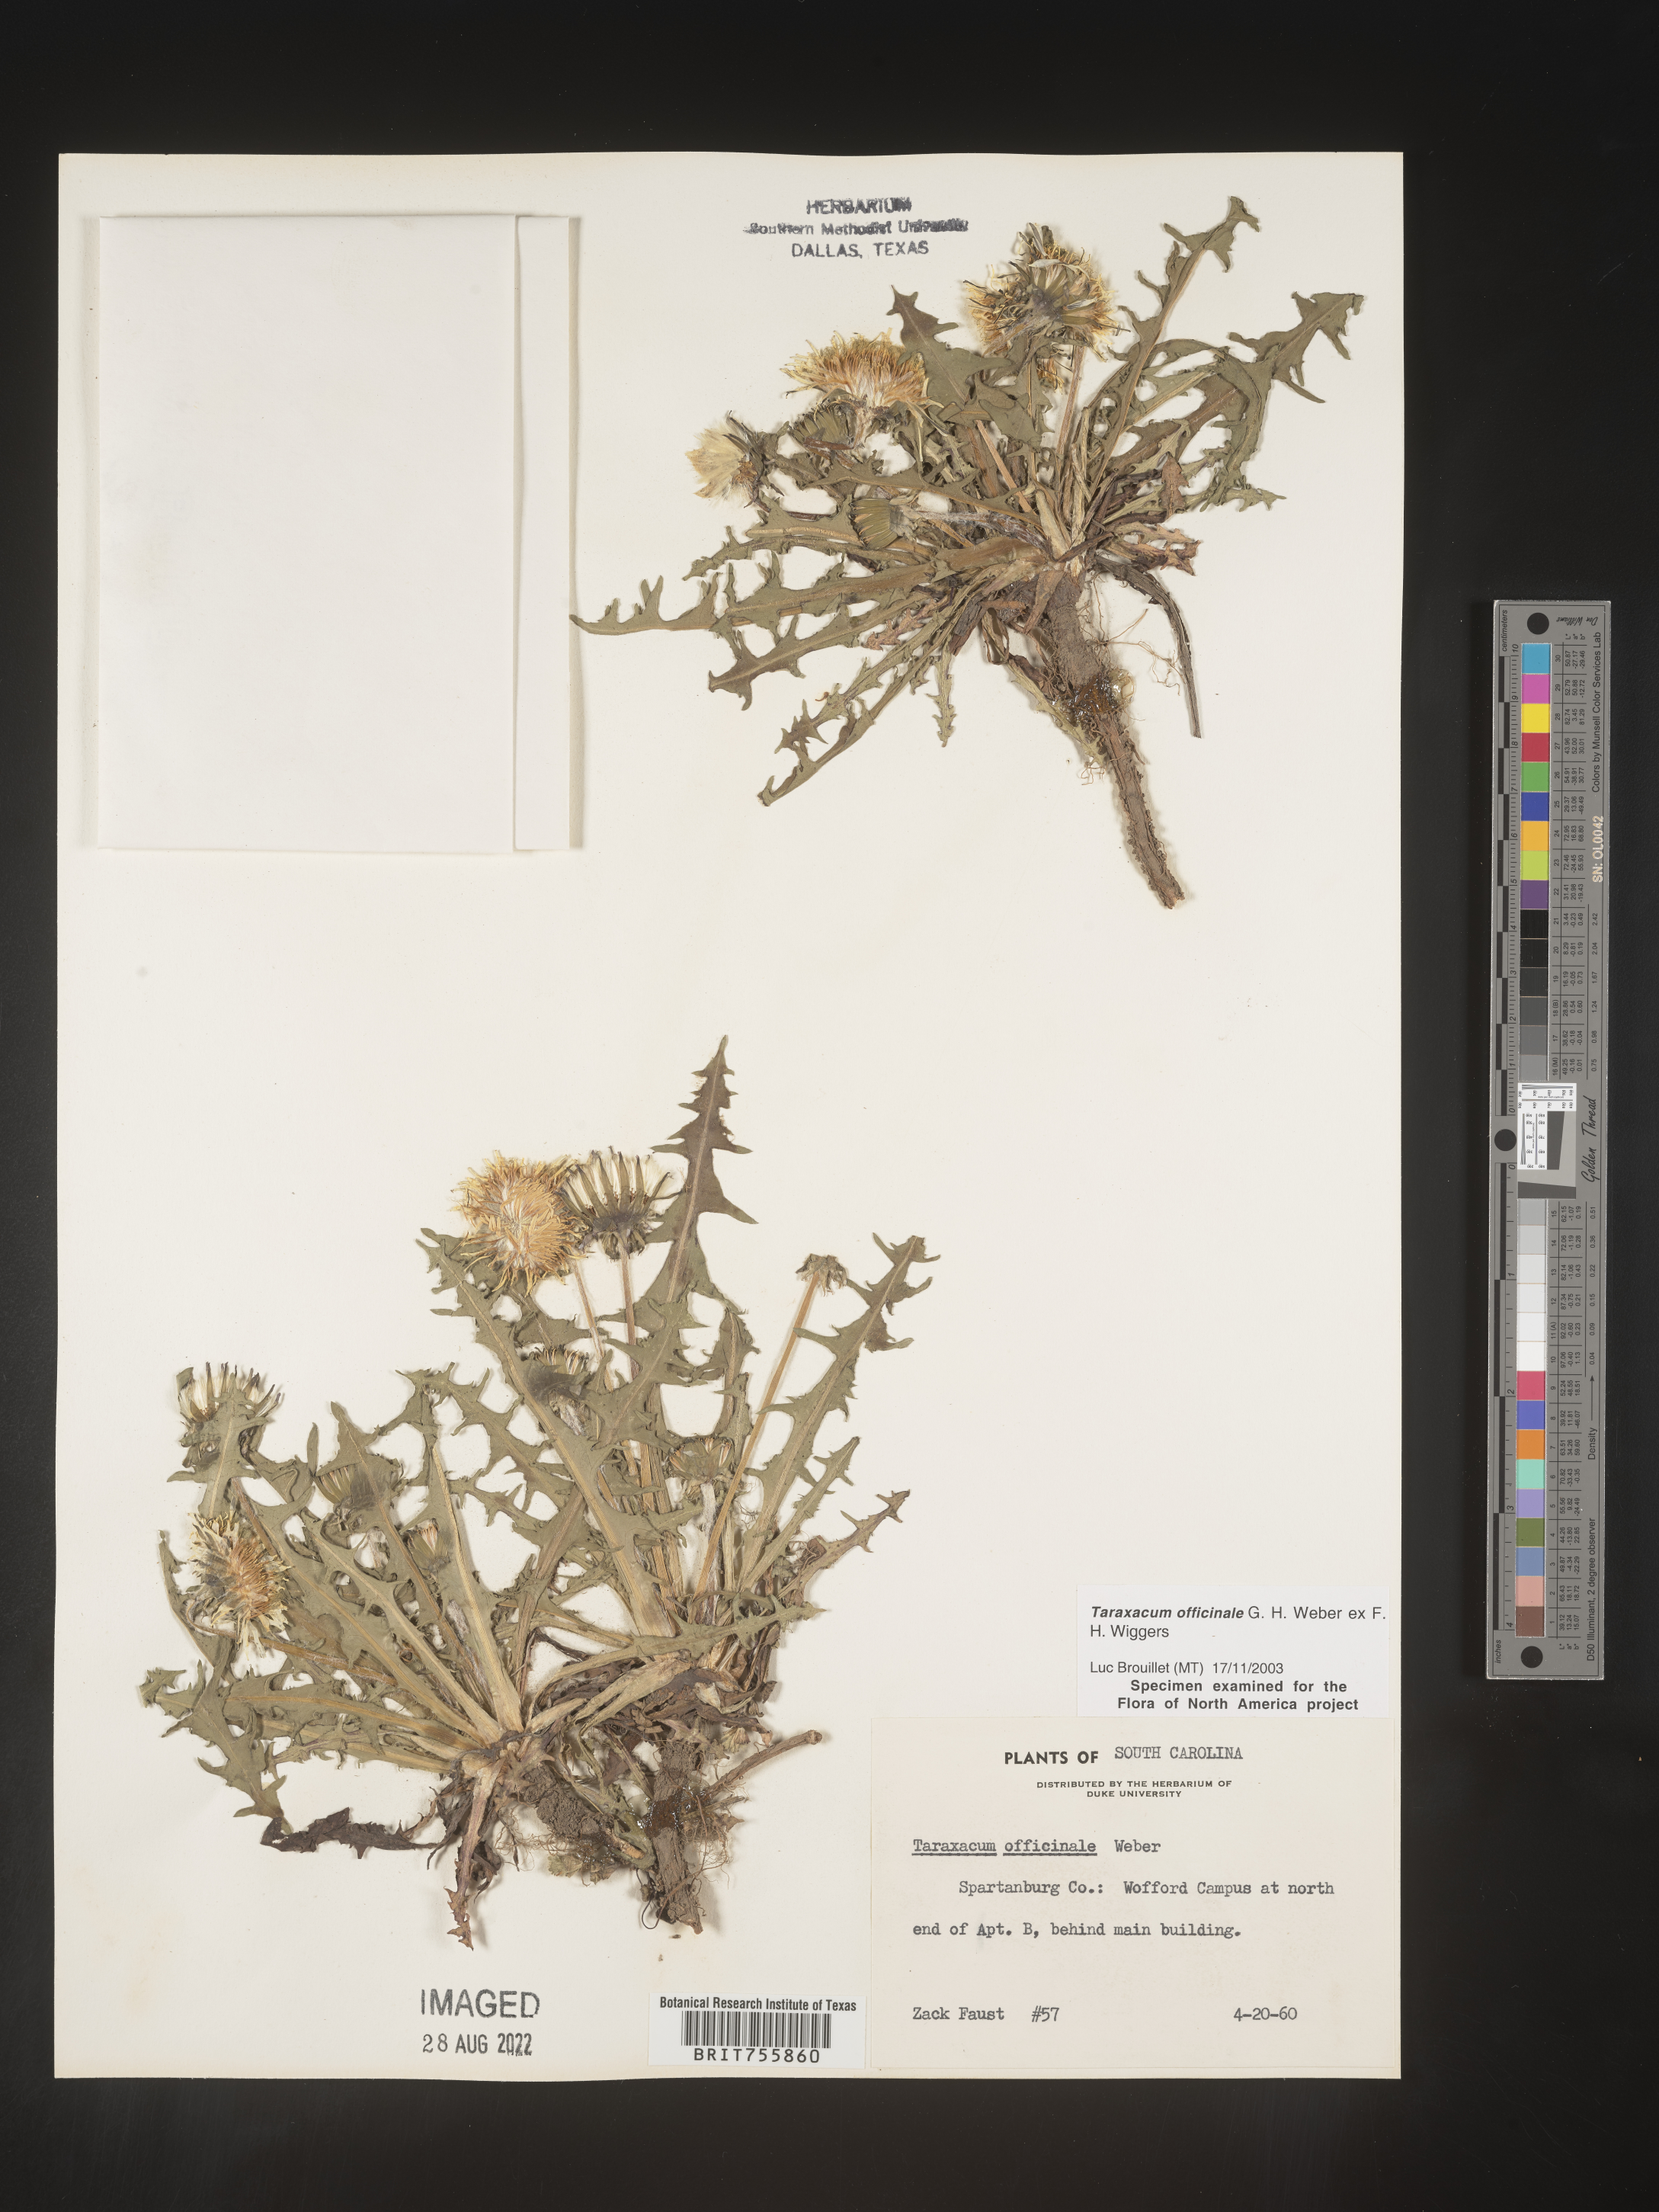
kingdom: Plantae
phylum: Tracheophyta
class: Magnoliopsida
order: Asterales
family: Asteraceae
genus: Taraxacum
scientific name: Taraxacum officinale
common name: Common dandelion
